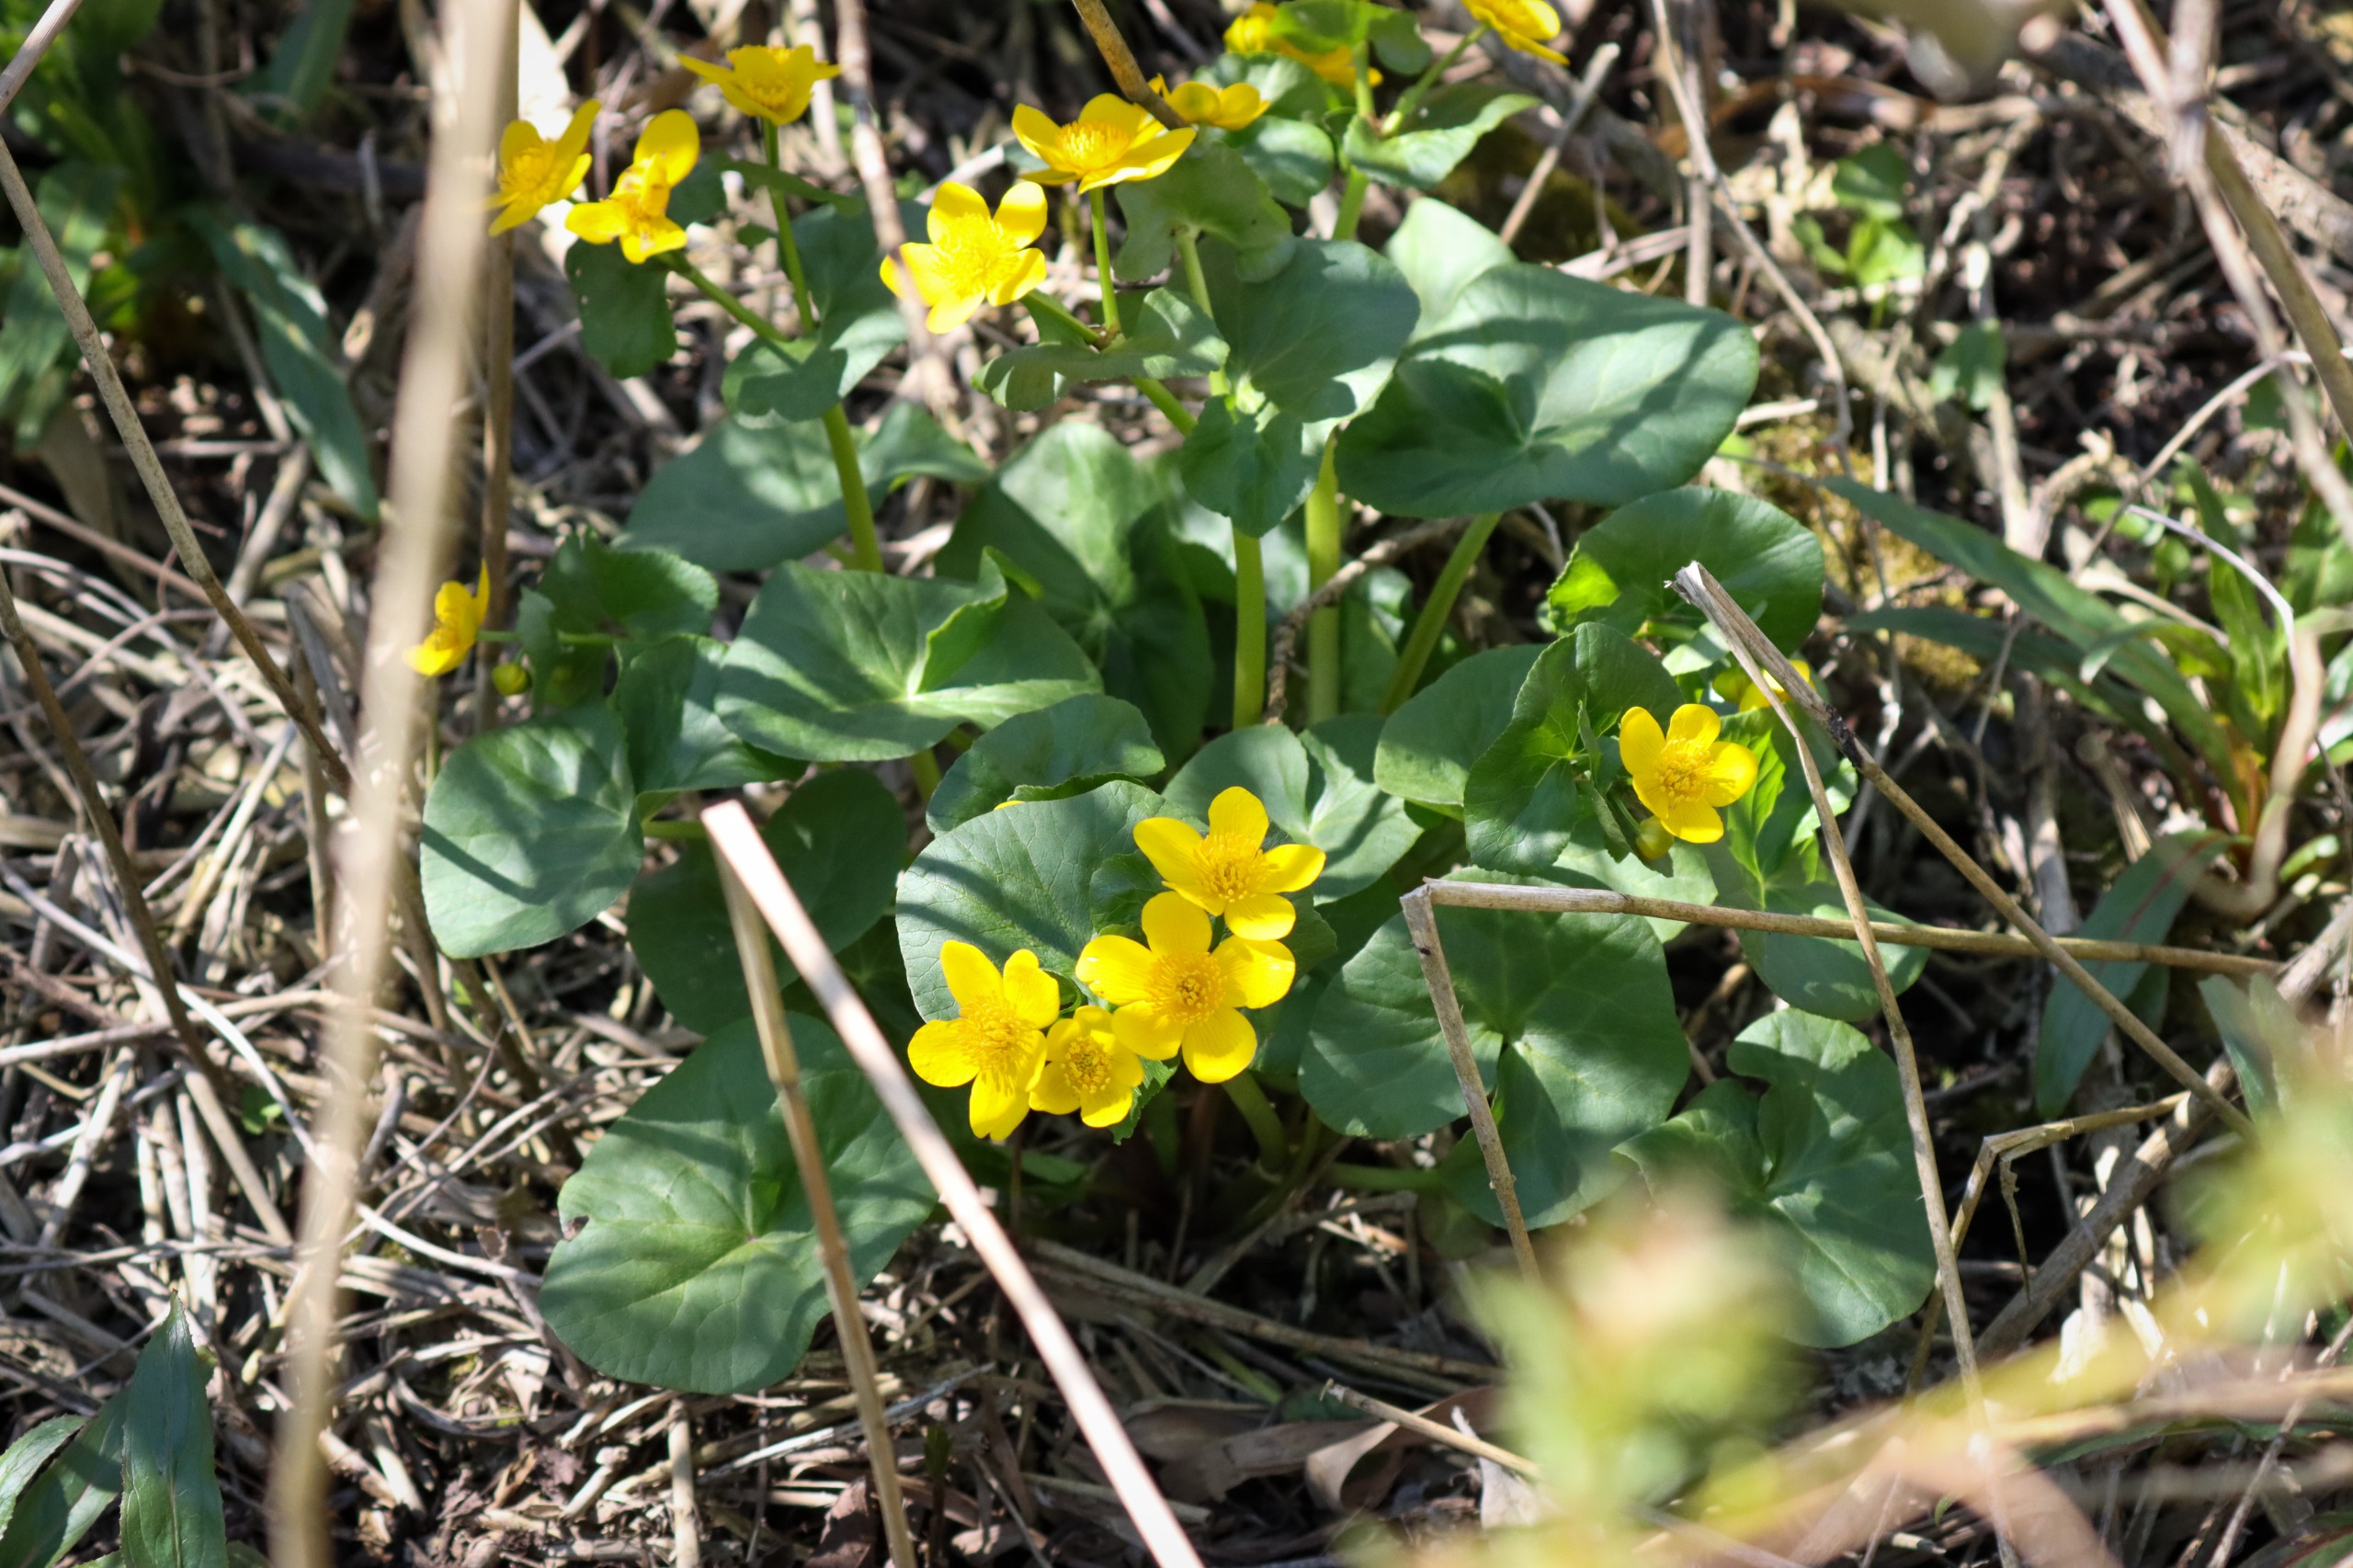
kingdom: Plantae
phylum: Tracheophyta
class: Magnoliopsida
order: Ranunculales
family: Ranunculaceae
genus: Caltha
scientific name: Caltha palustris
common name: Eng-kabbeleje
